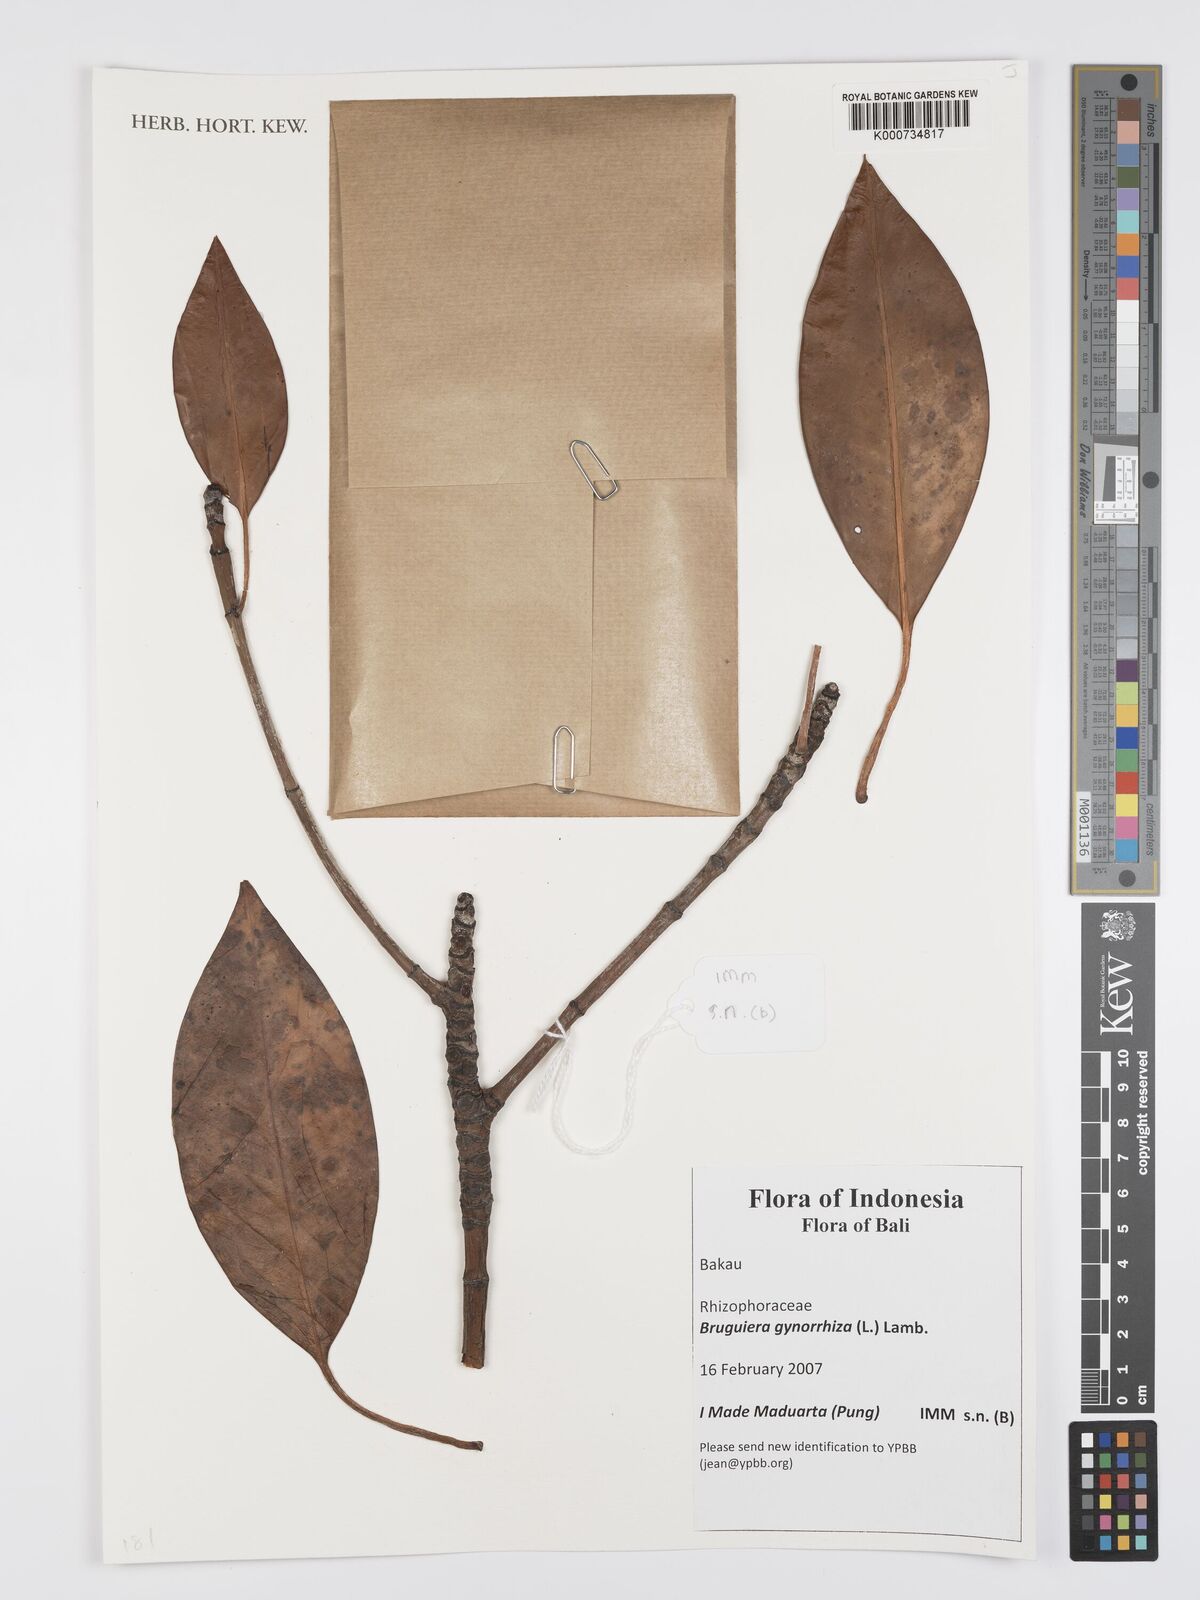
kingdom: Plantae
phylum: Tracheophyta
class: Magnoliopsida
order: Malpighiales
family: Rhizophoraceae
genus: Bruguiera
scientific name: Bruguiera
